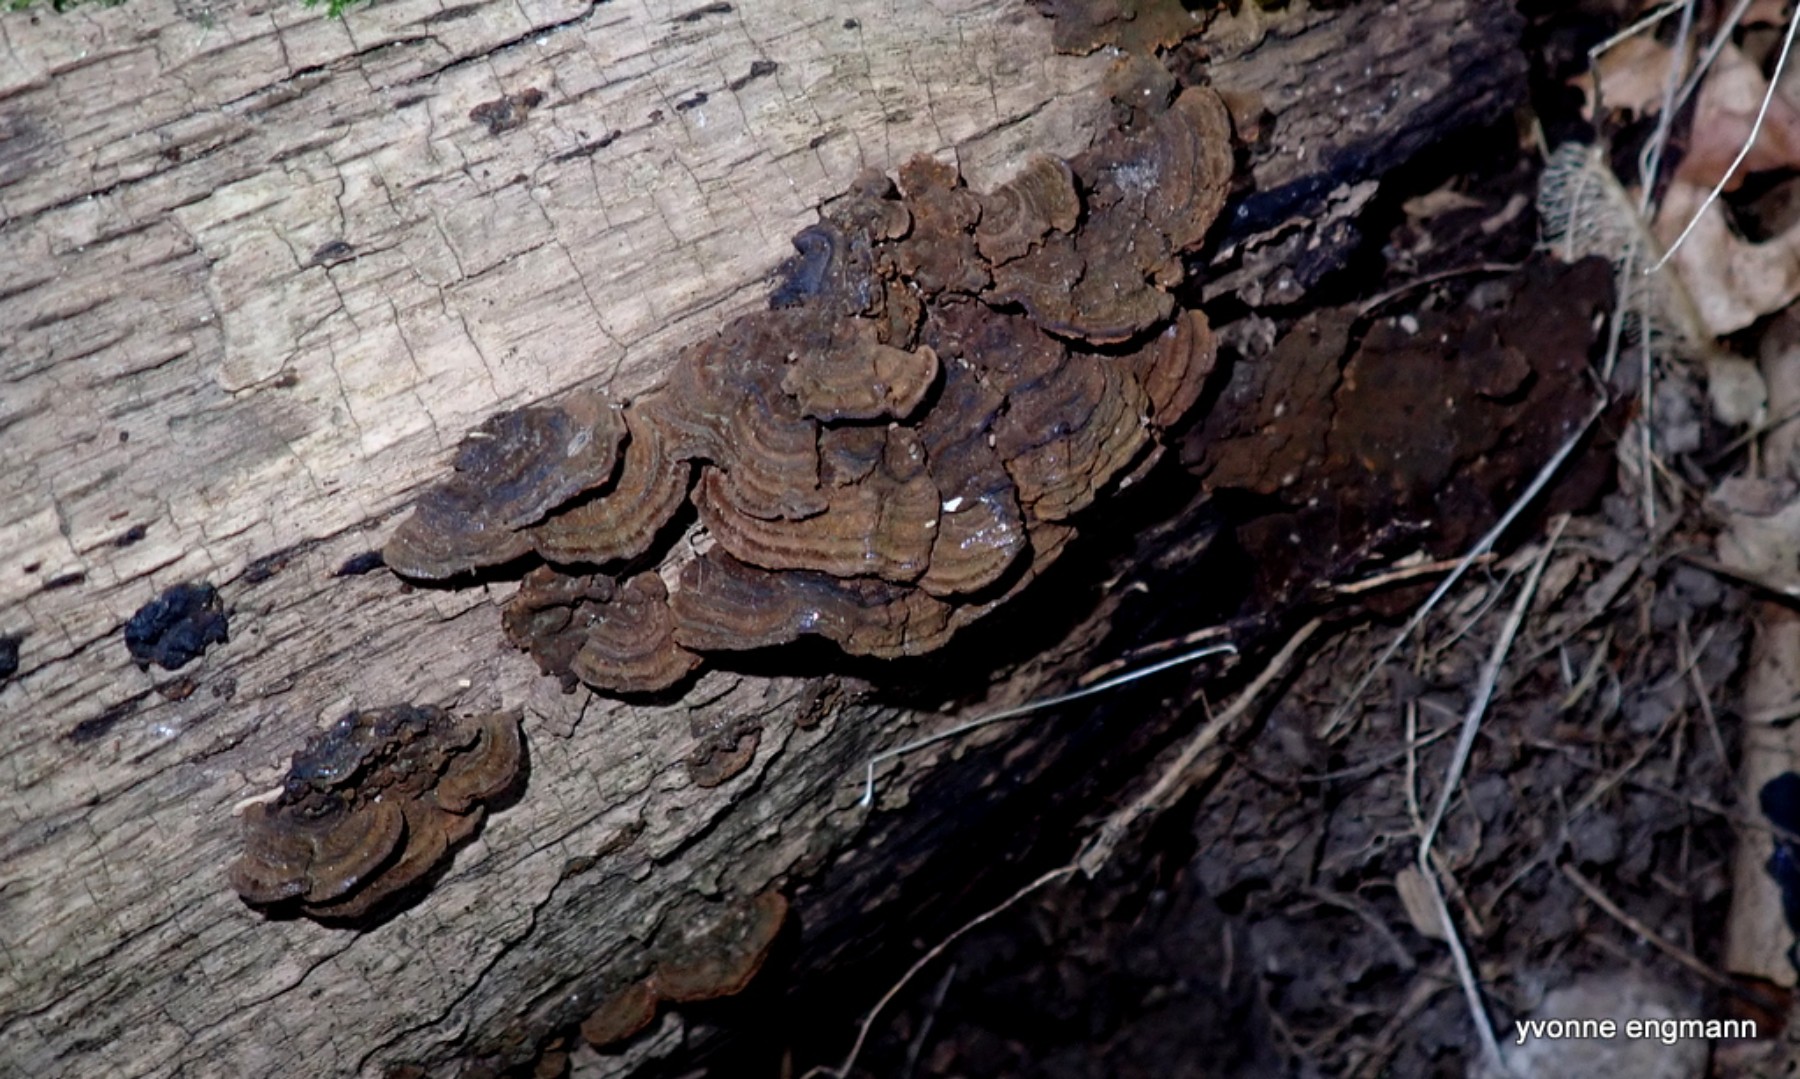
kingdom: Fungi
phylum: Basidiomycota
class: Agaricomycetes
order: Hymenochaetales
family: Hymenochaetaceae
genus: Hymenochaete
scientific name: Hymenochaete rubiginosa
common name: stiv ruslædersvamp
